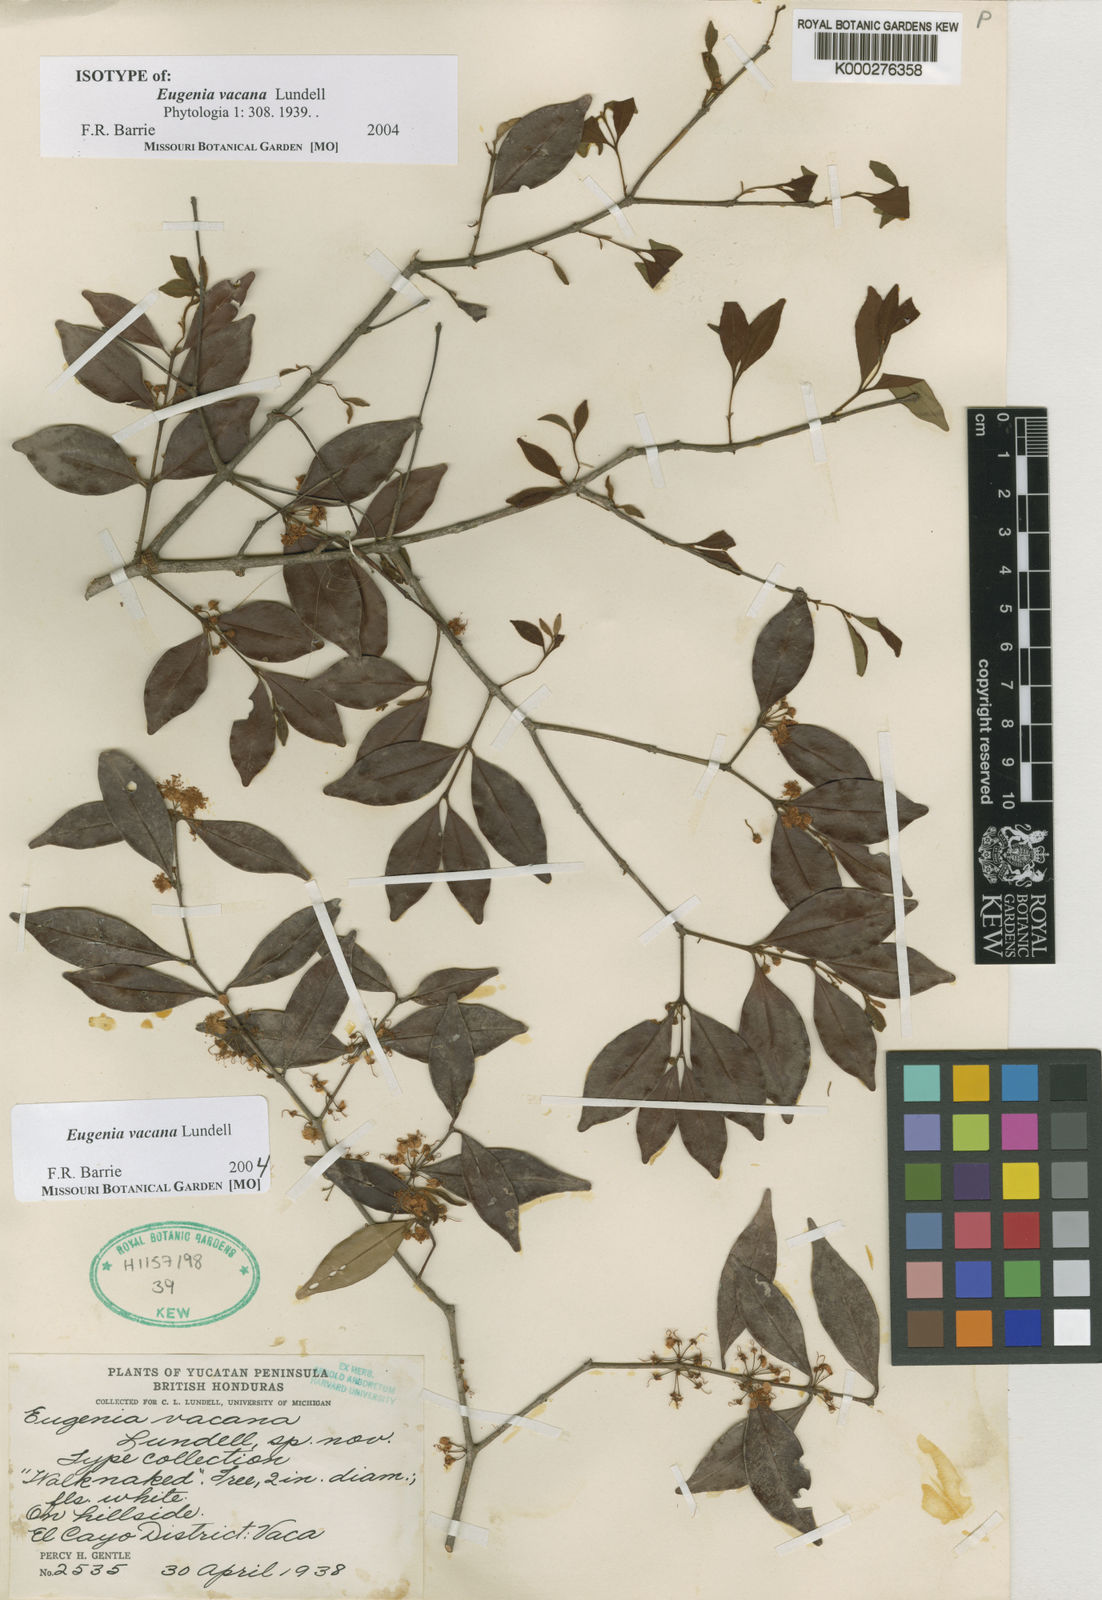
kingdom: Plantae
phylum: Tracheophyta
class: Magnoliopsida
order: Myrtales
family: Myrtaceae
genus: Eugenia
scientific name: Eugenia vacana
